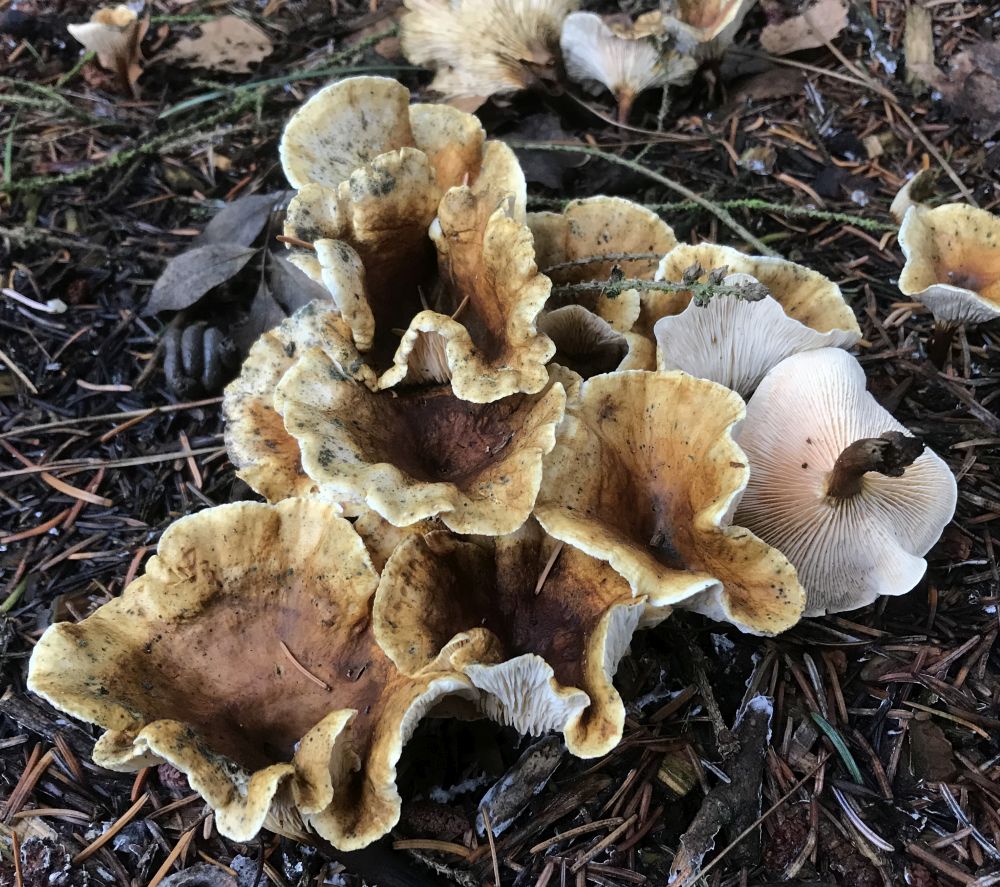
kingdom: Fungi
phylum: Basidiomycota
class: Agaricomycetes
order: Boletales
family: Hygrophoropsidaceae
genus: Hygrophoropsis
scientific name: Hygrophoropsis pallida
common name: bleg orangekantarel
